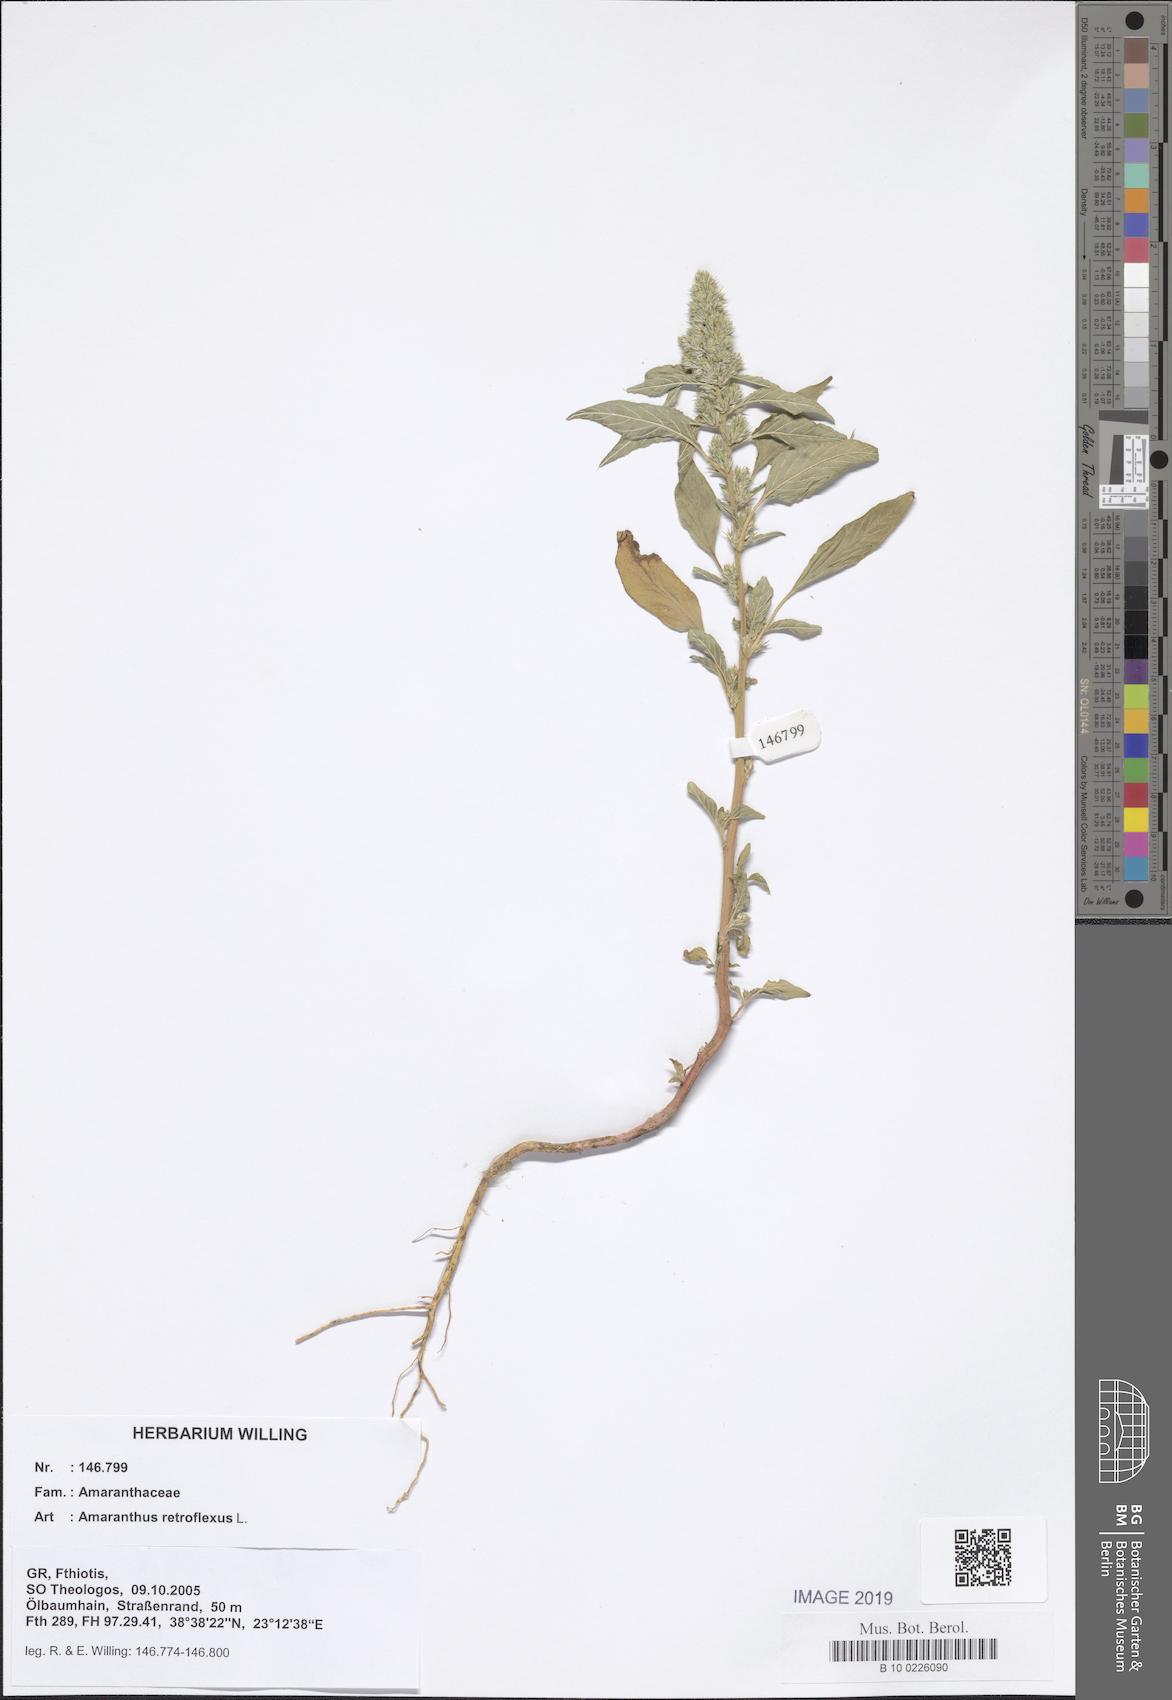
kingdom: Plantae
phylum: Tracheophyta
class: Magnoliopsida
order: Caryophyllales
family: Amaranthaceae
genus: Amaranthus
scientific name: Amaranthus retroflexus
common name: Redroot amaranth
